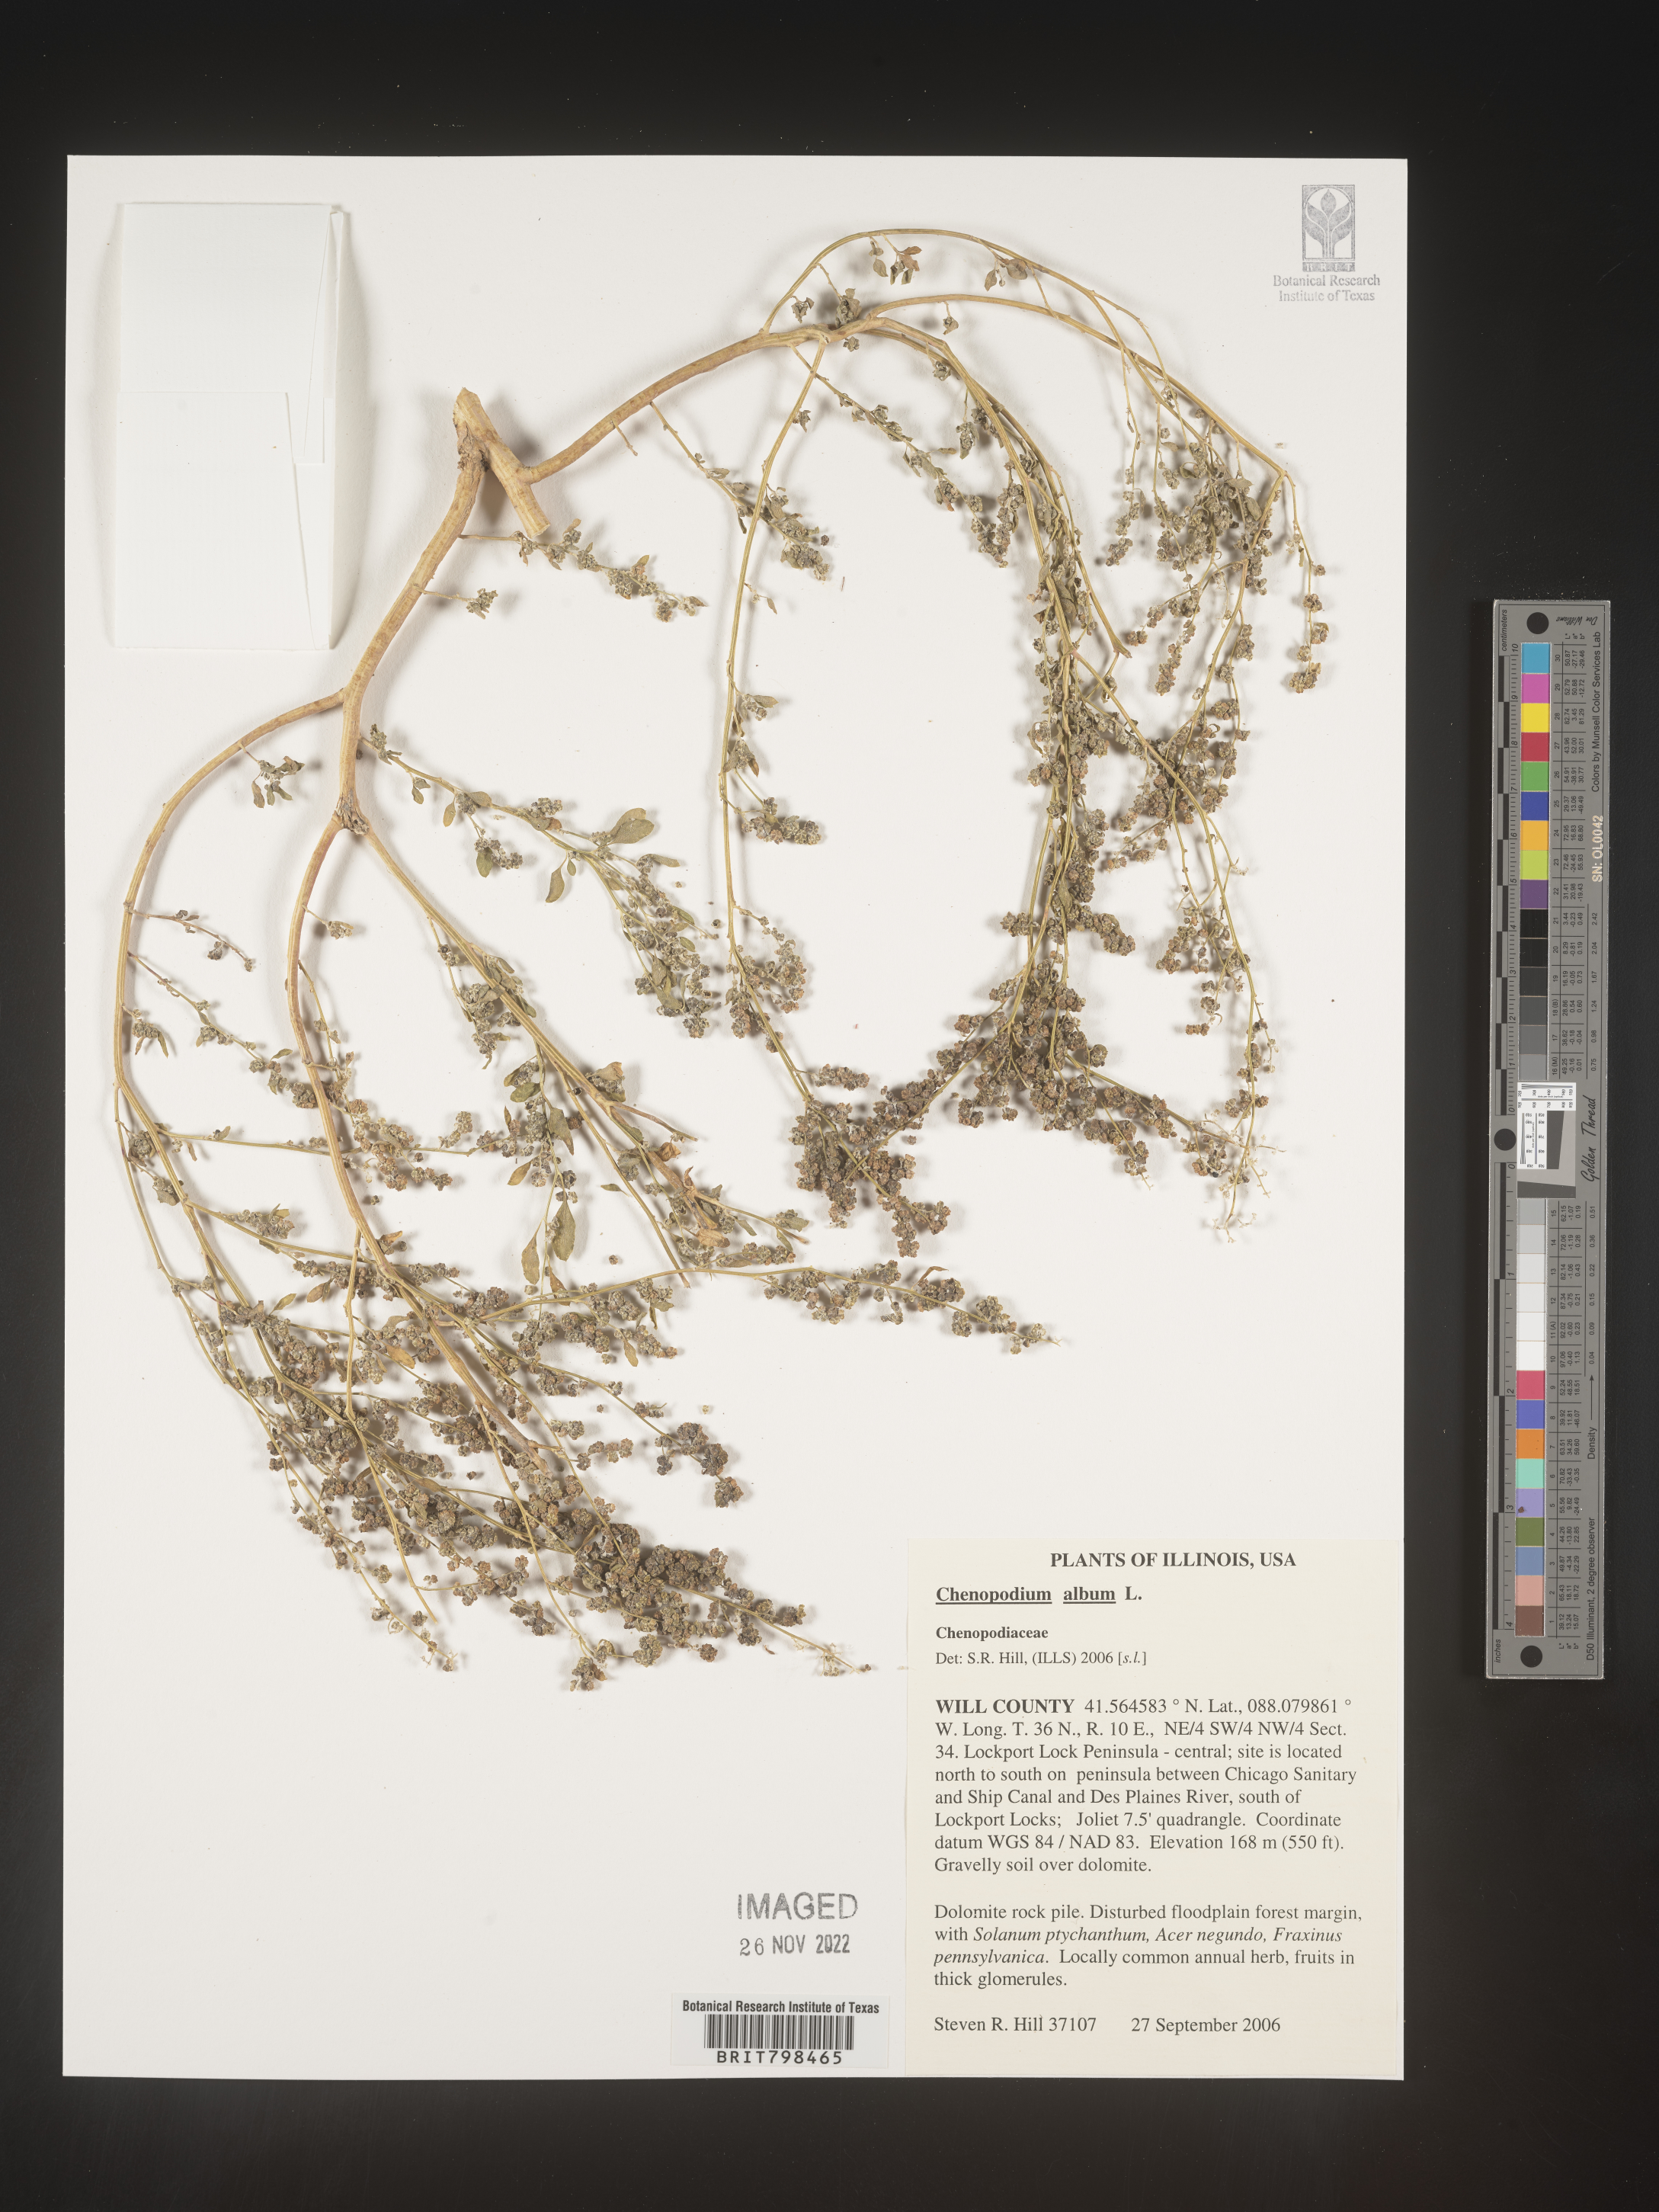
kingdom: Plantae
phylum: Tracheophyta
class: Magnoliopsida
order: Caryophyllales
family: Amaranthaceae
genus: Chenopodium
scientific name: Chenopodium album
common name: Fat-hen
